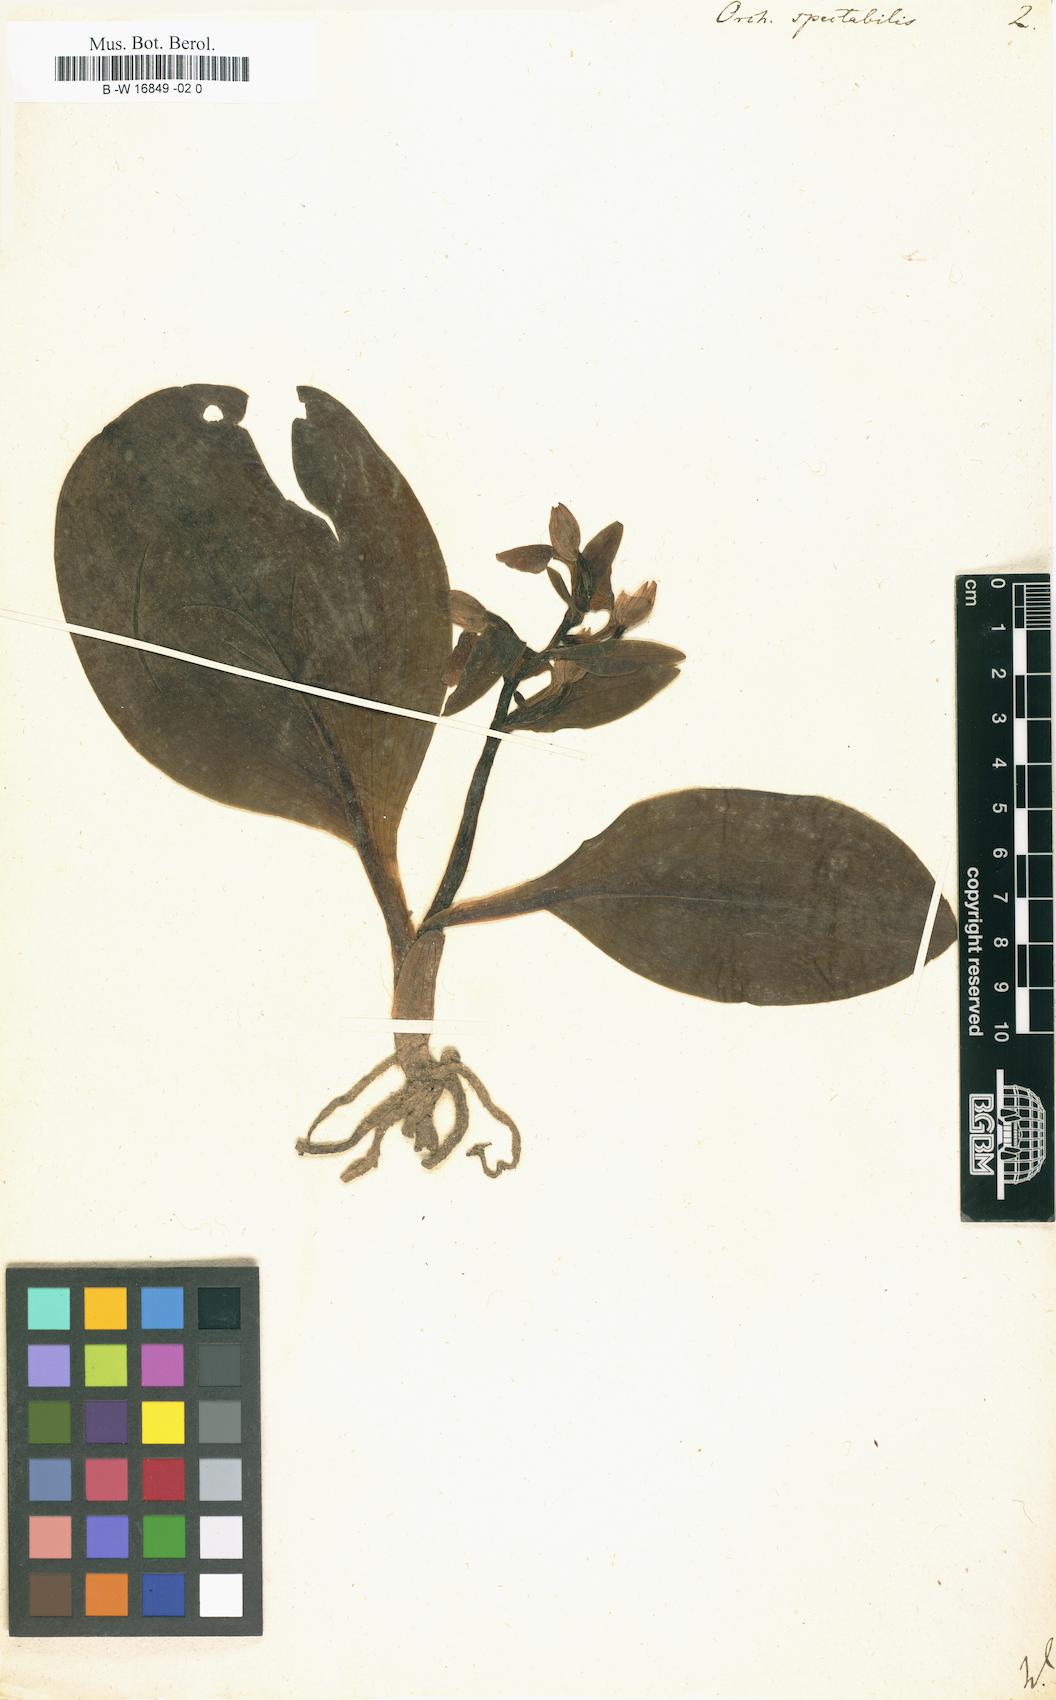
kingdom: Plantae
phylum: Tracheophyta
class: Liliopsida
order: Asparagales
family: Orchidaceae
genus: Galearis
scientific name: Galearis spectabilis
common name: Purple-hooded orchis
